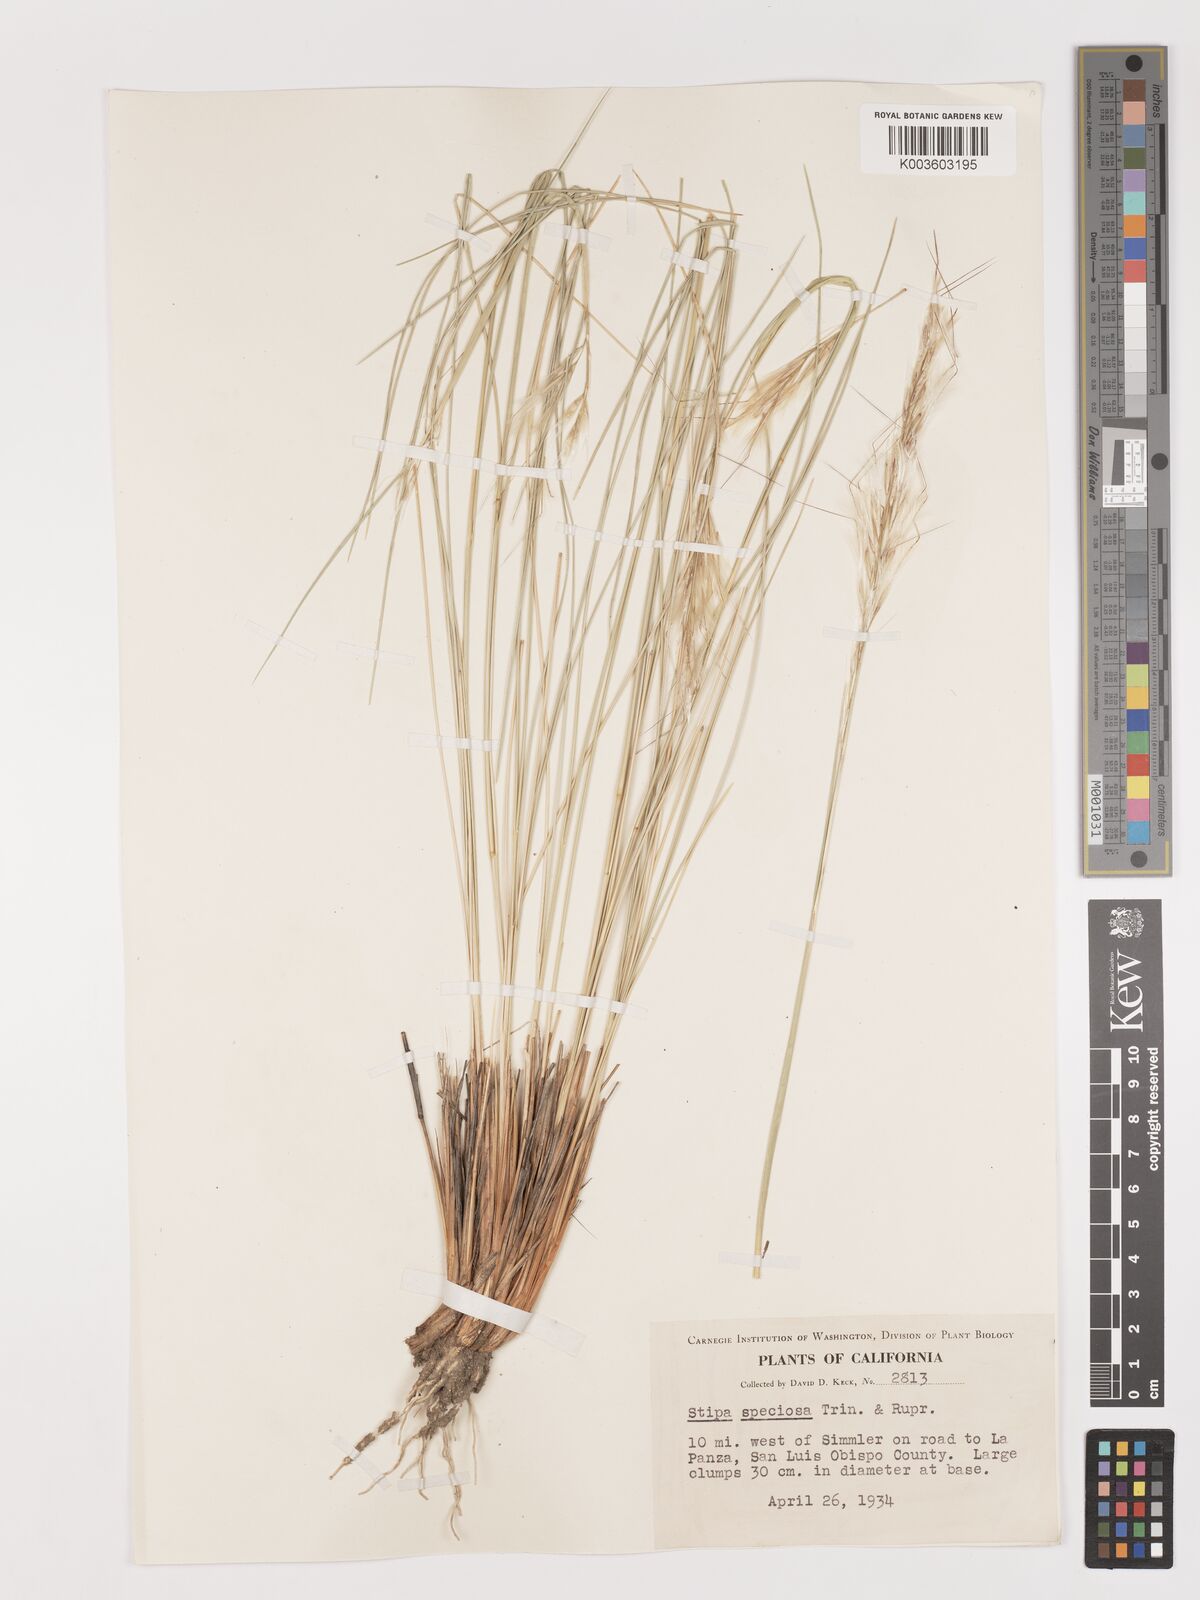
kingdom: Plantae
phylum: Tracheophyta
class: Liliopsida
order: Poales
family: Poaceae
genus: Pappostipa
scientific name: Pappostipa speciosa
